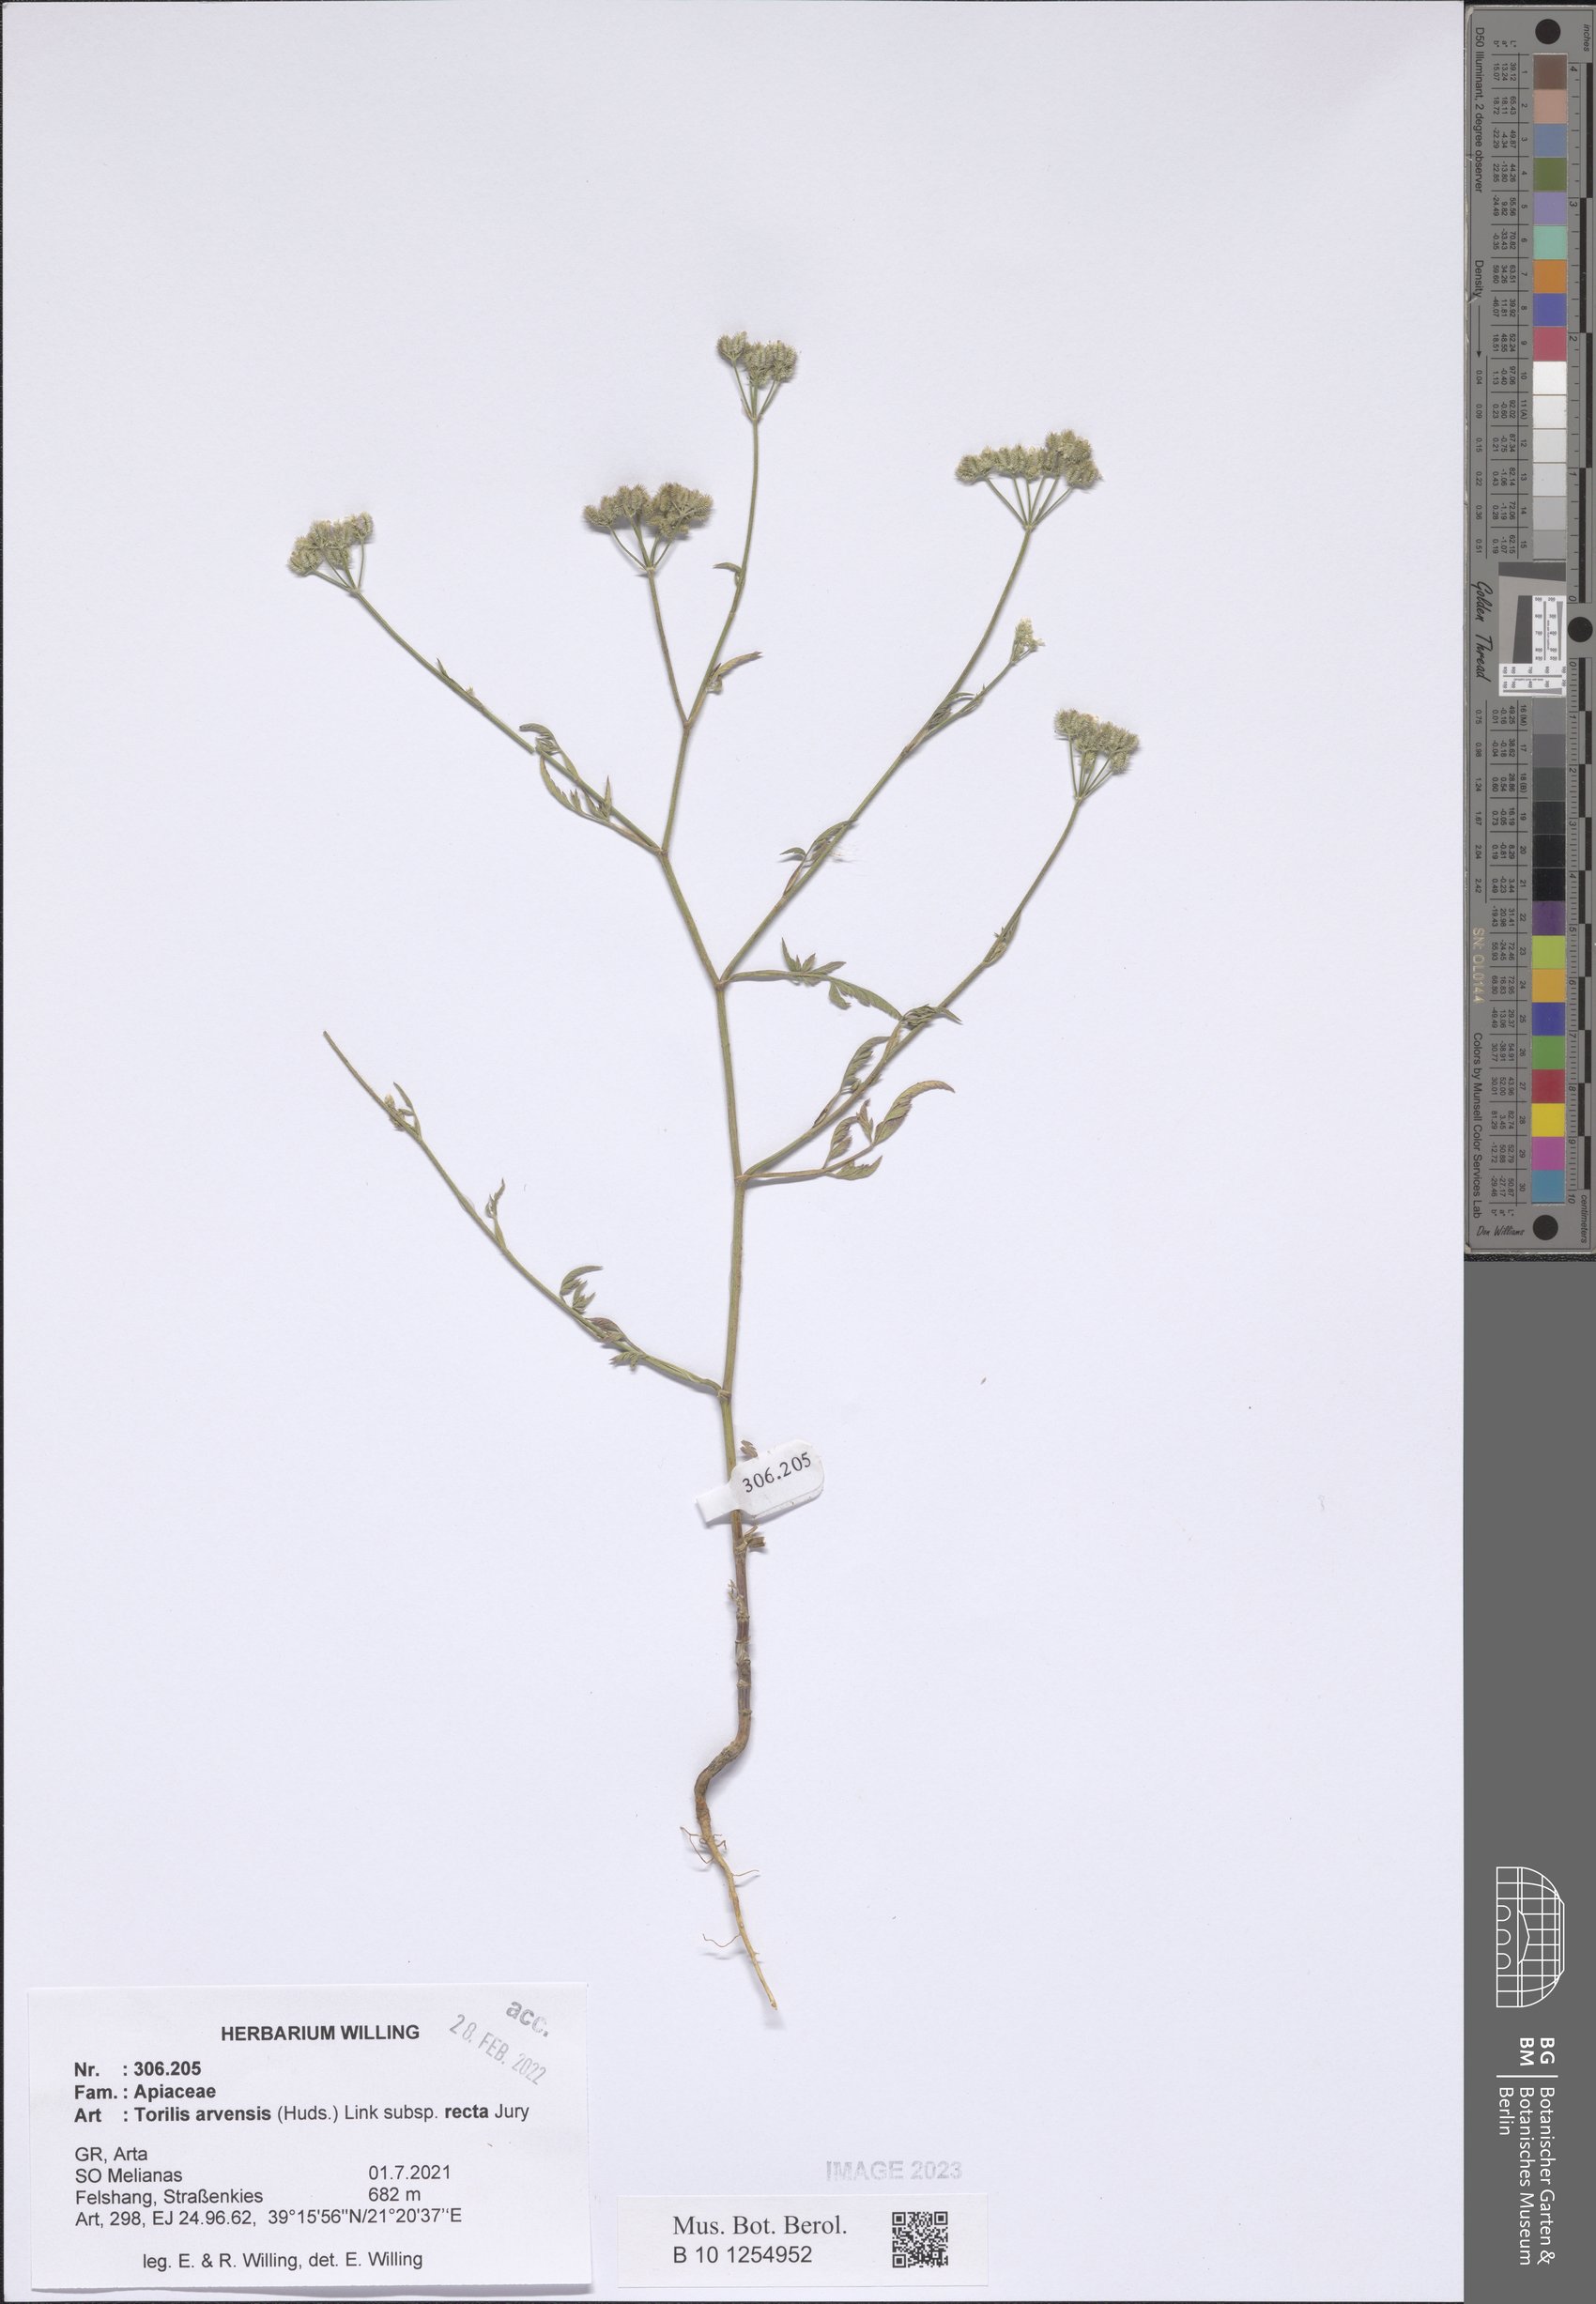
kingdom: Plantae
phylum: Tracheophyta
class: Magnoliopsida
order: Apiales
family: Apiaceae
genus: Torilis
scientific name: Torilis arvensis
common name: Spreading hedge-parsley
